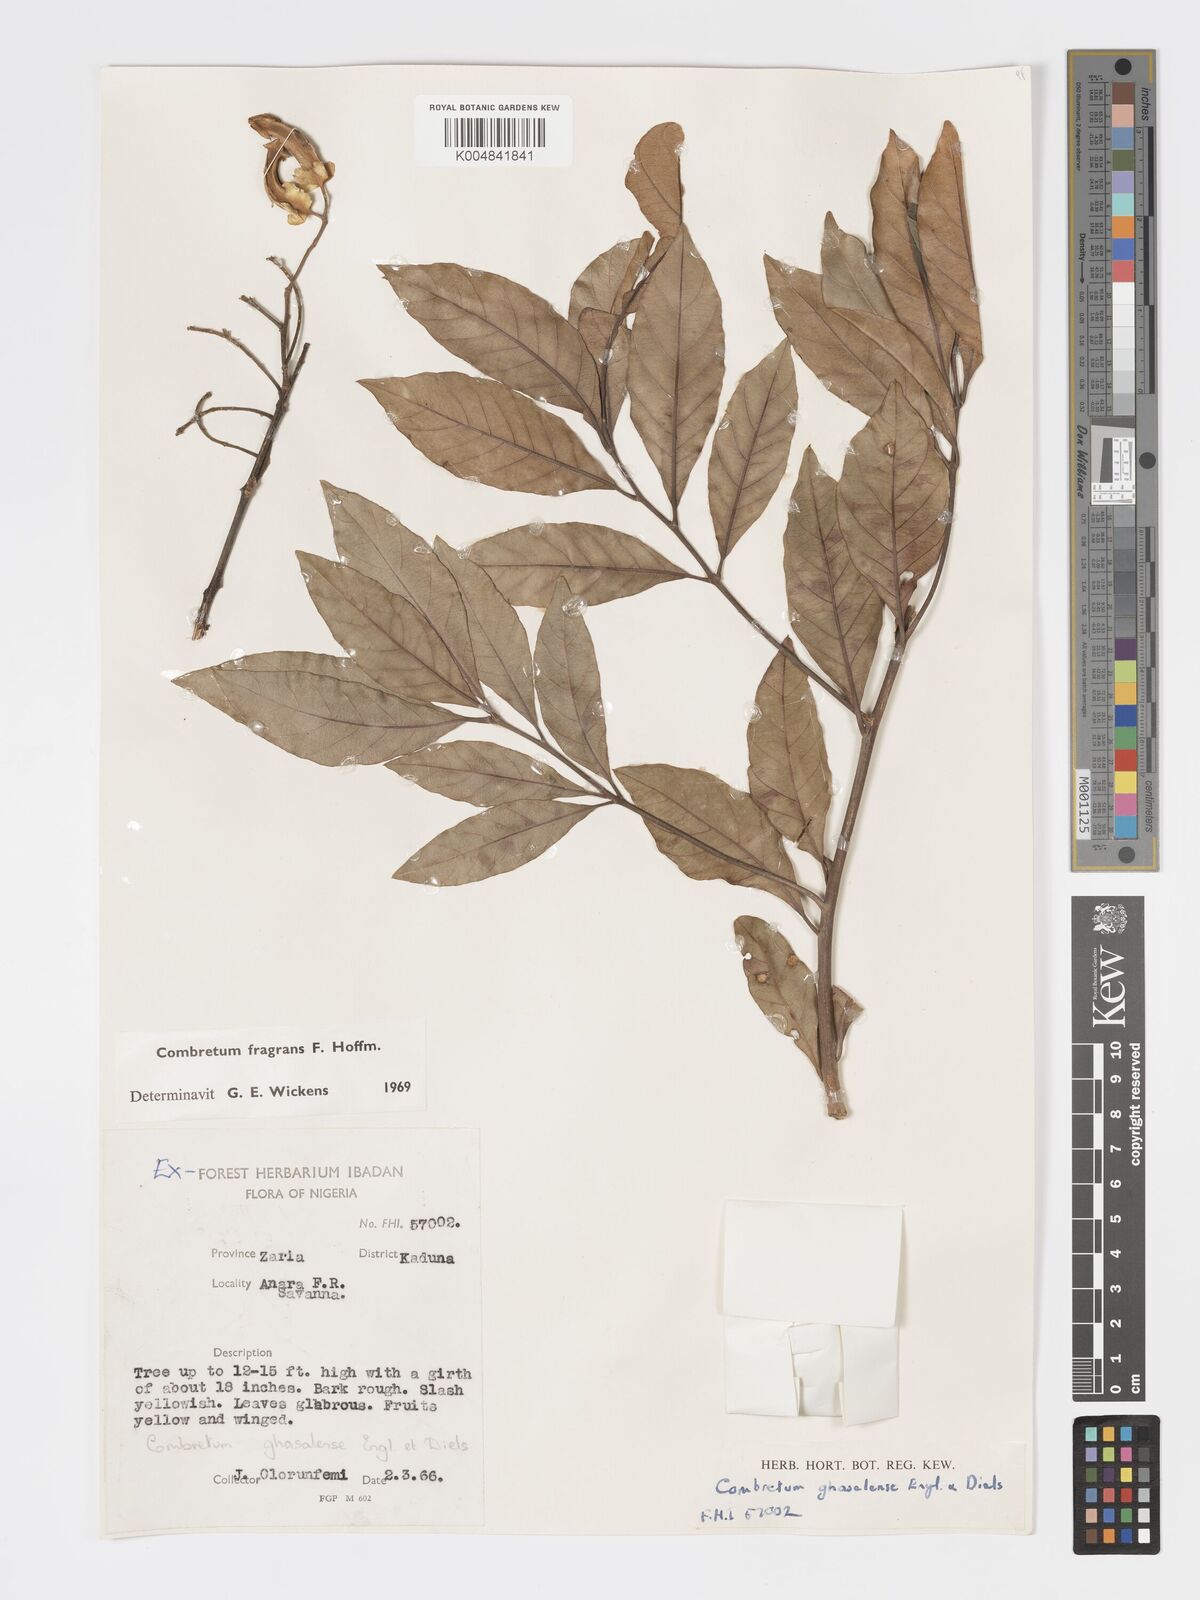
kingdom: Plantae
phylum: Tracheophyta
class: Magnoliopsida
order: Myrtales
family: Combretaceae
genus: Combretum
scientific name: Combretum adenogonium
